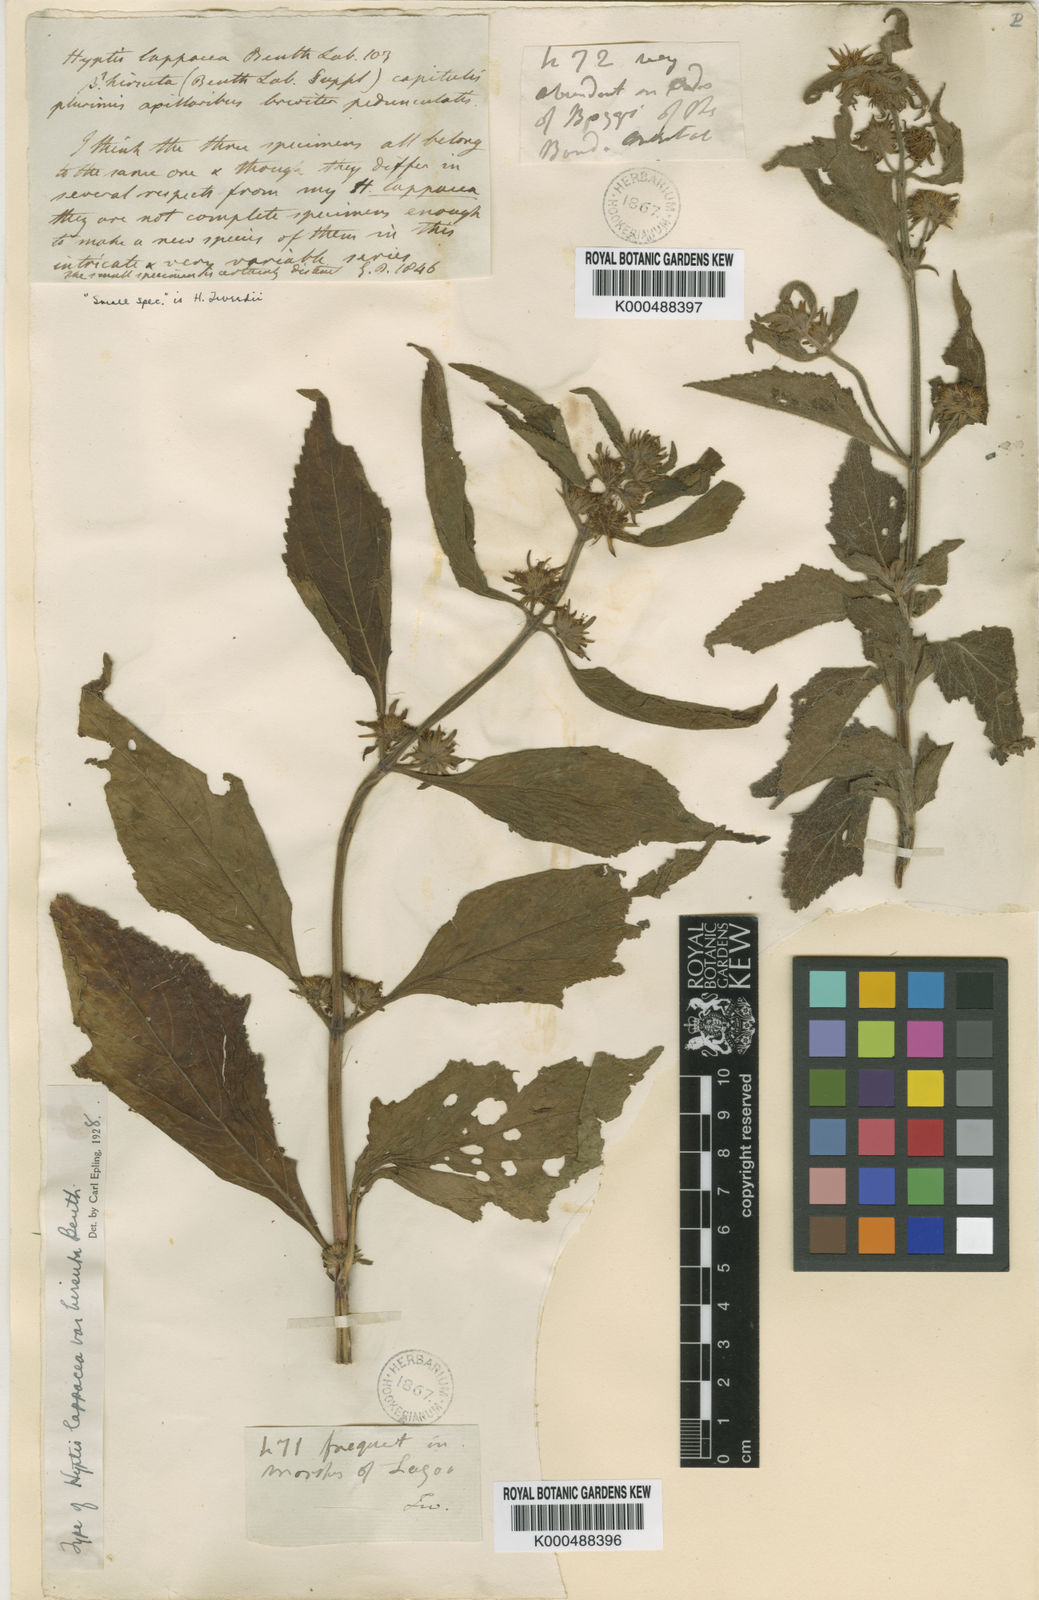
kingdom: Plantae
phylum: Tracheophyta
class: Magnoliopsida
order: Lamiales
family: Lamiaceae
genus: Hyptis
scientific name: Hyptis lappacea
